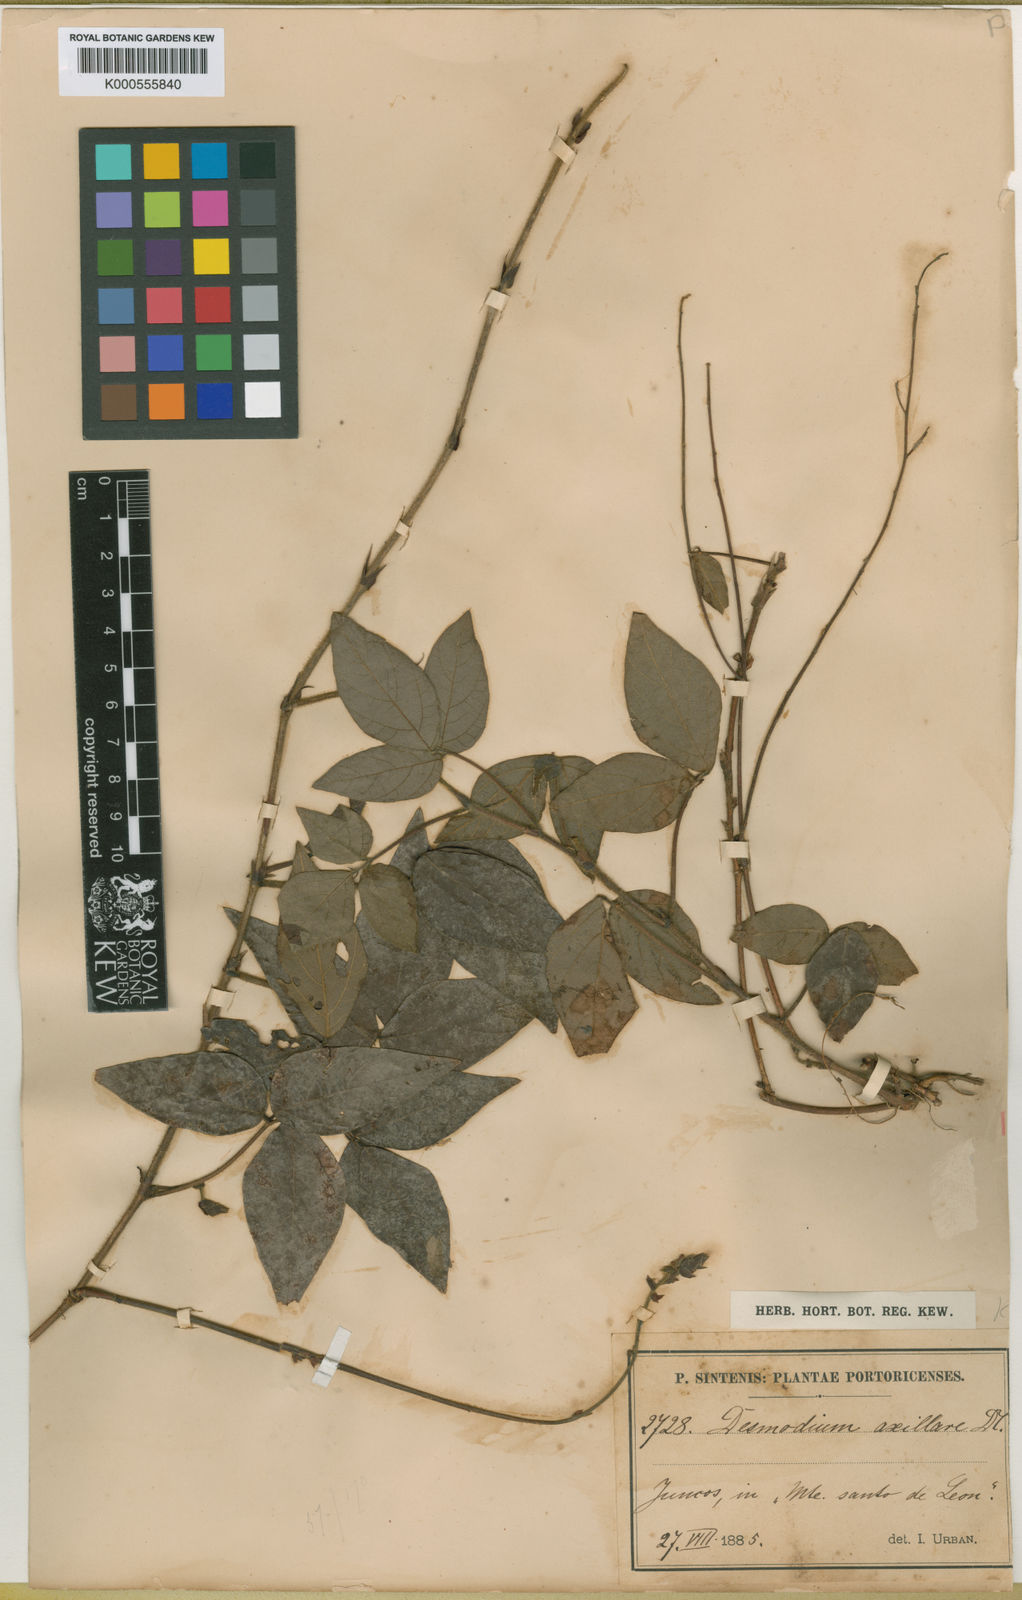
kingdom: Plantae
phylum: Tracheophyta
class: Magnoliopsida
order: Fabales
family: Fabaceae
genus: Desmodium
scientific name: Desmodium axillare
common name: Wire with
